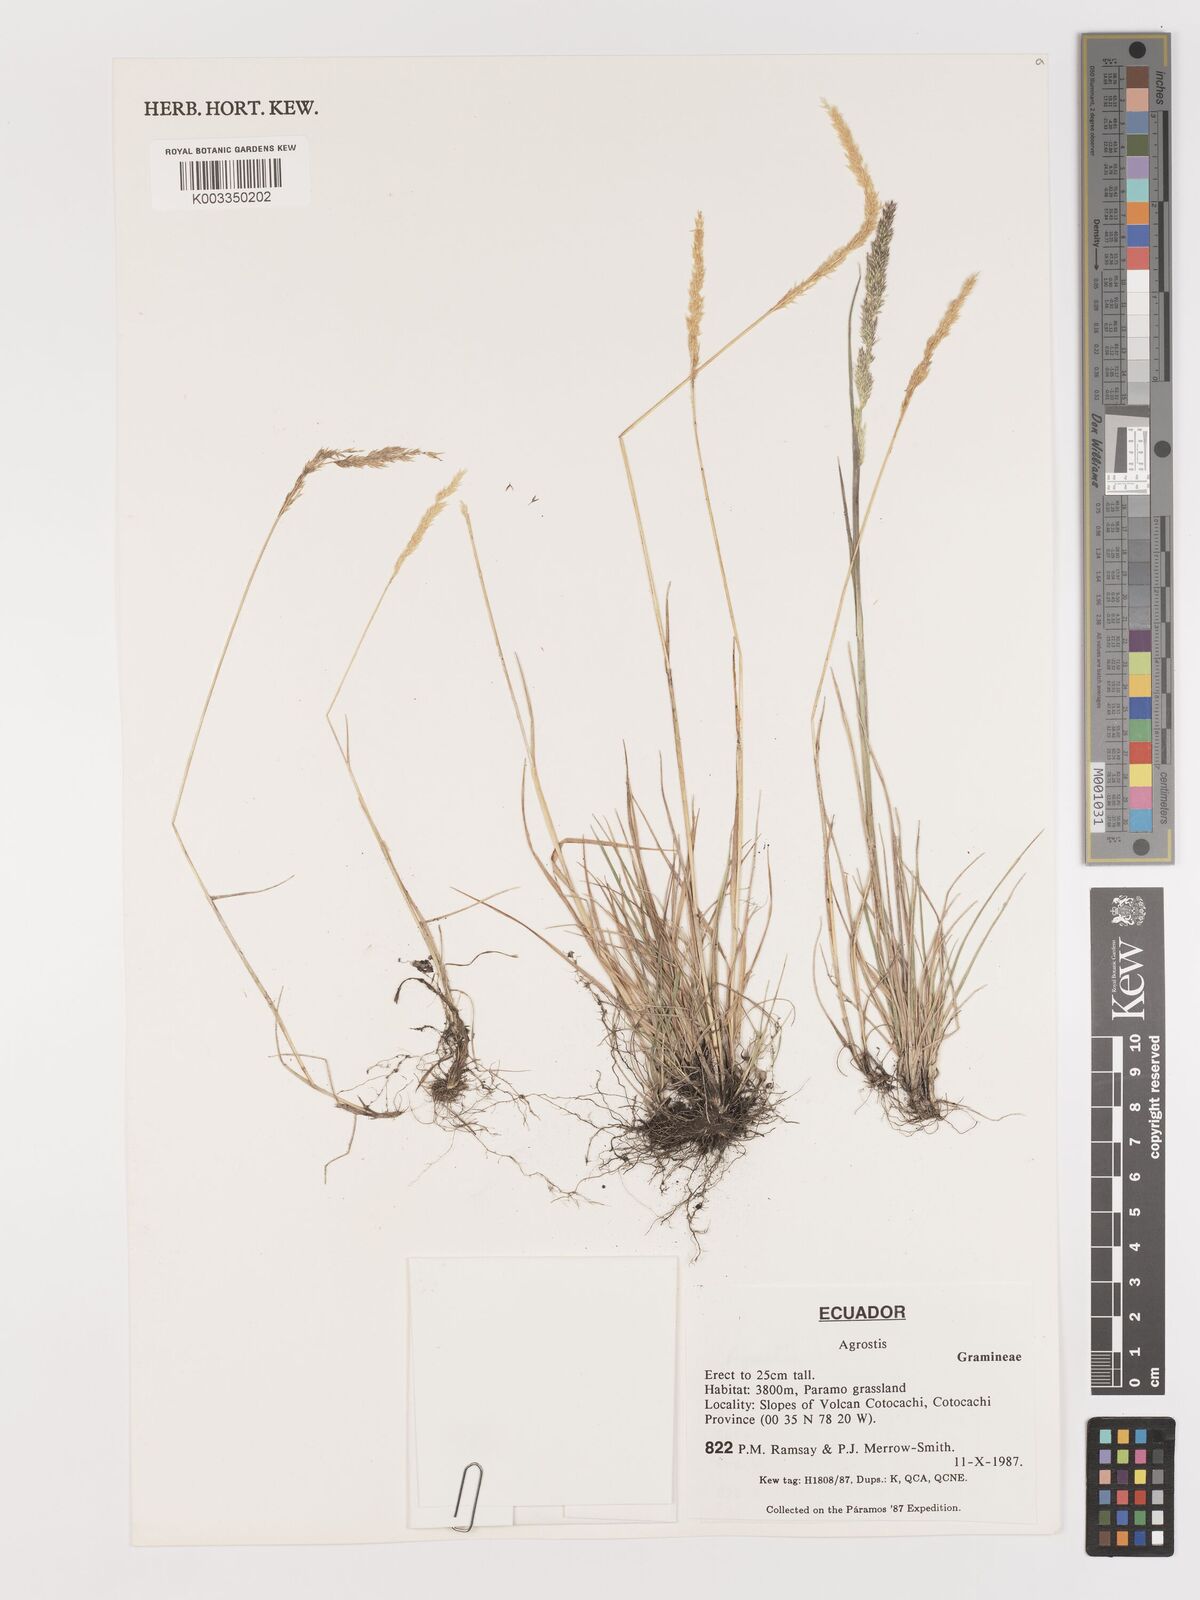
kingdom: Plantae
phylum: Tracheophyta
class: Liliopsida
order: Poales
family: Poaceae
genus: Agrostis
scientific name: Agrostis
